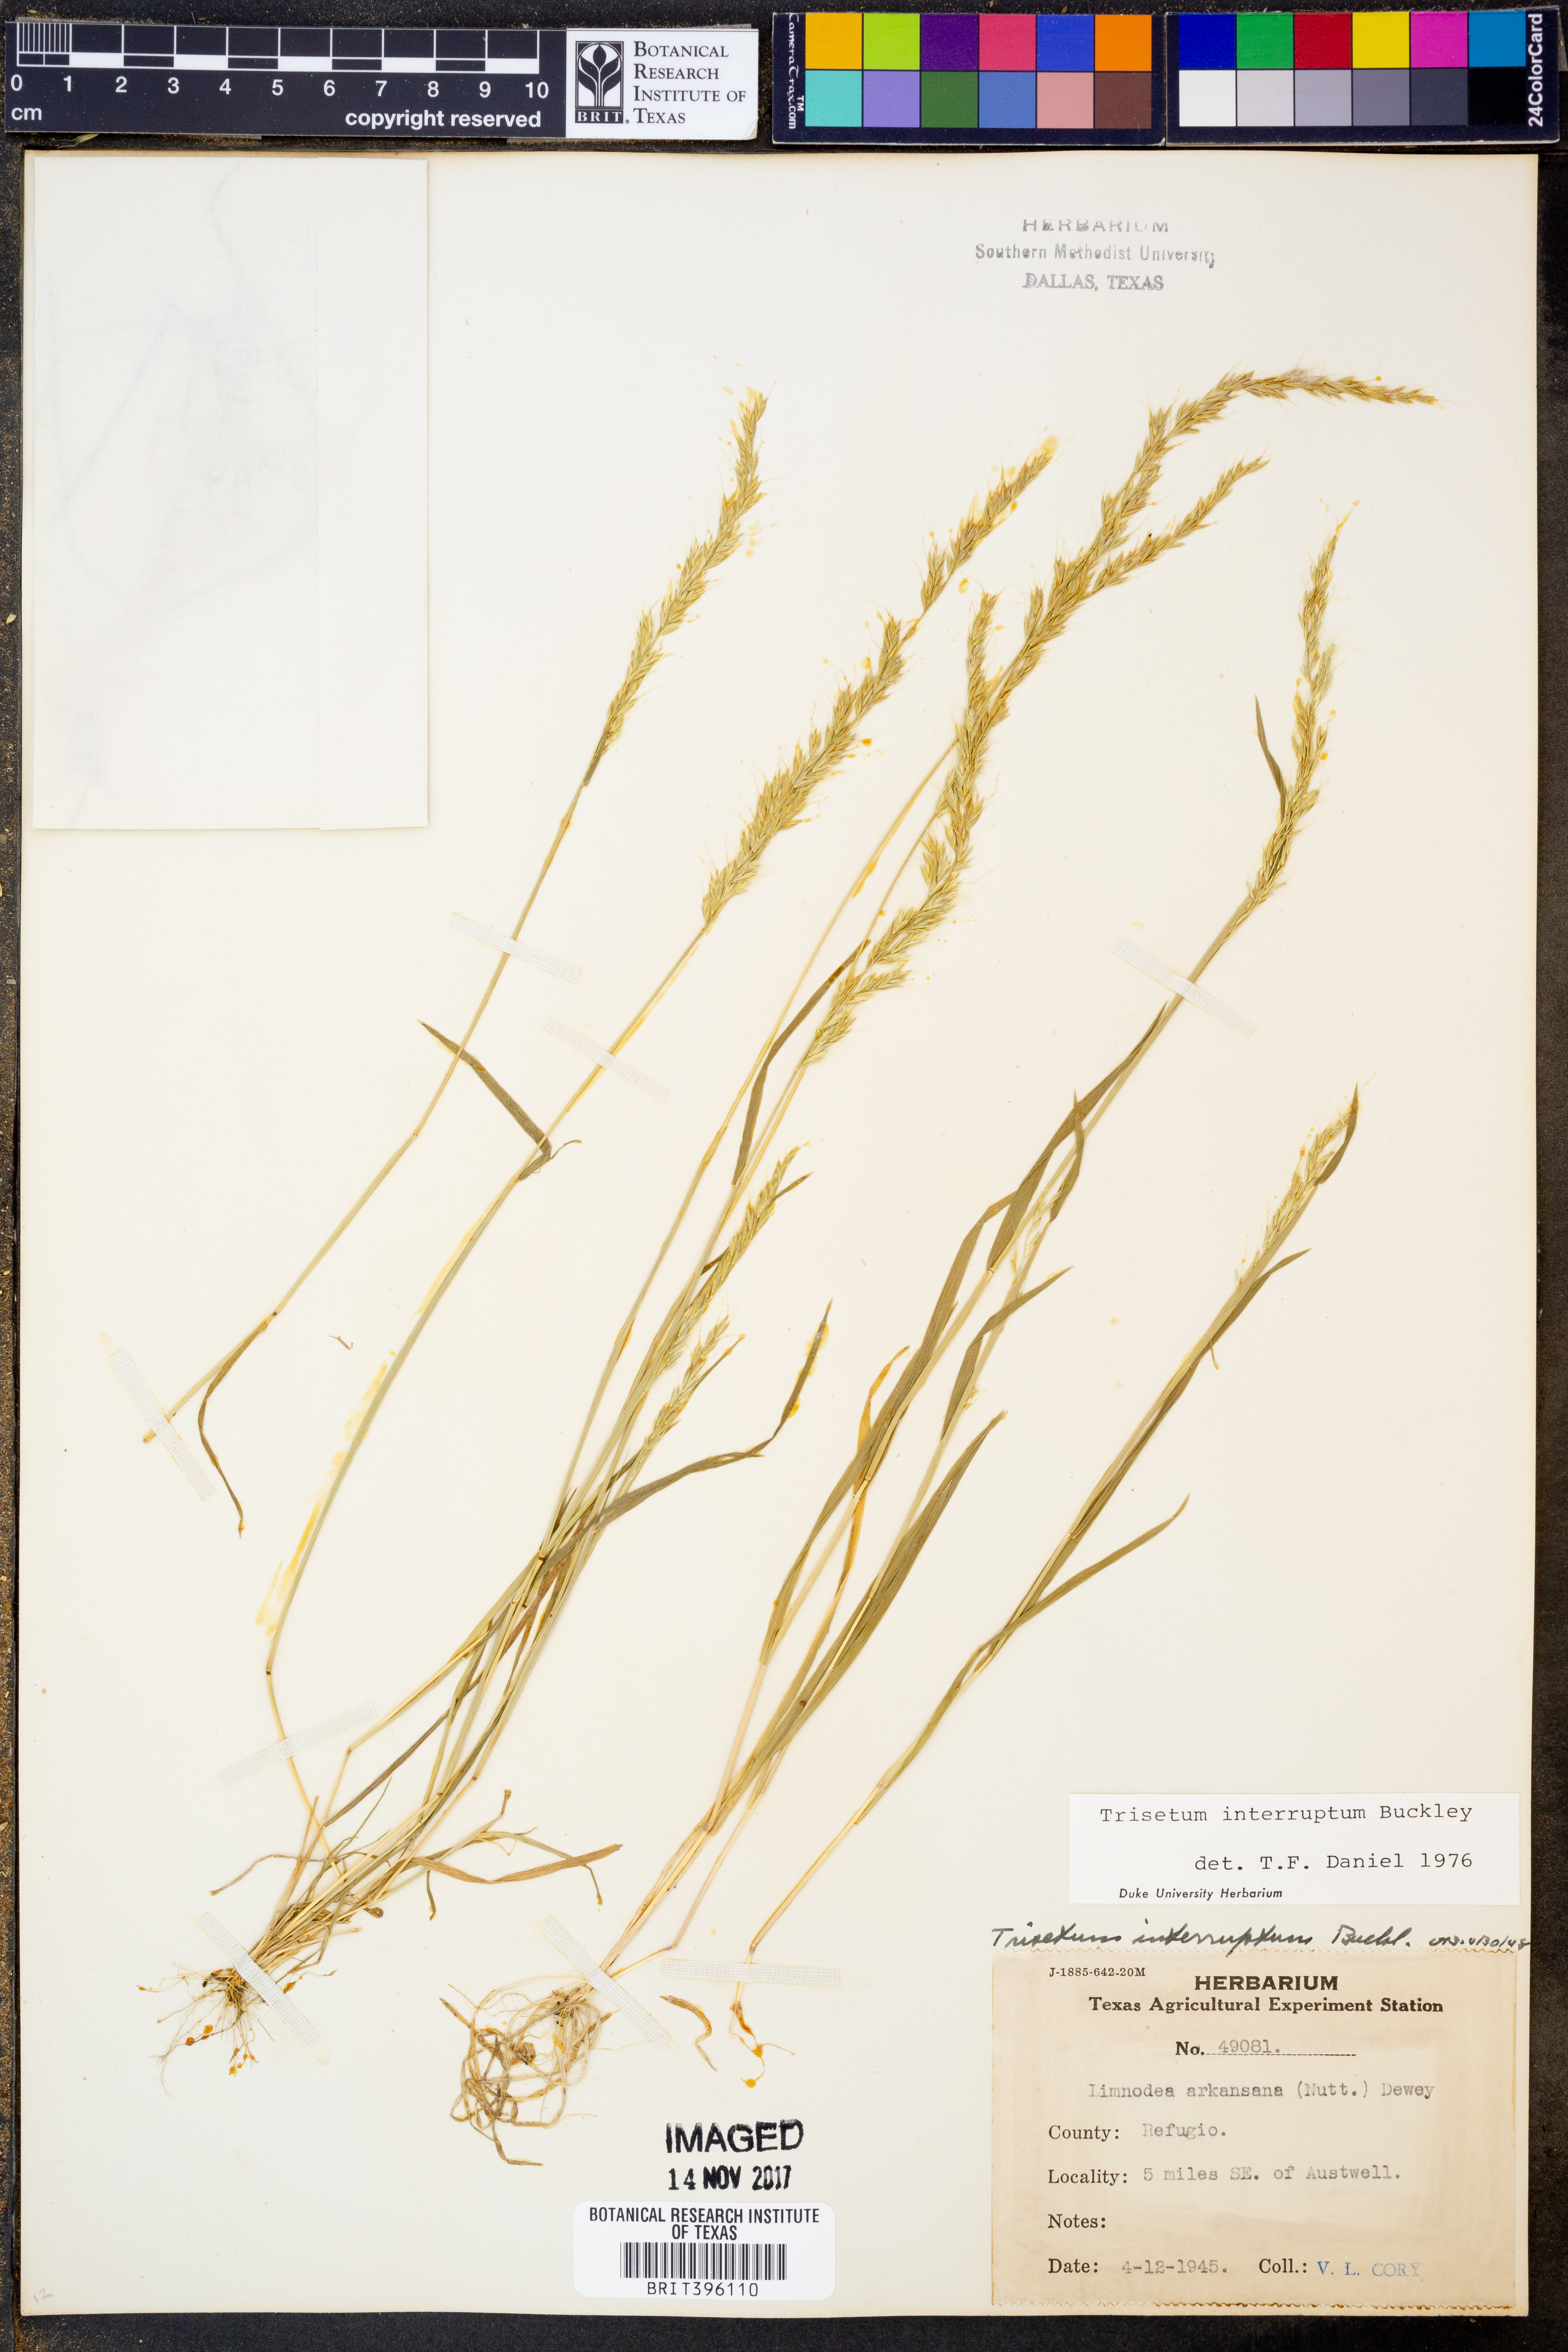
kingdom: Plantae
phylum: Tracheophyta
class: Liliopsida
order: Poales
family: Poaceae
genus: Sphenopholis
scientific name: Sphenopholis interrupta
